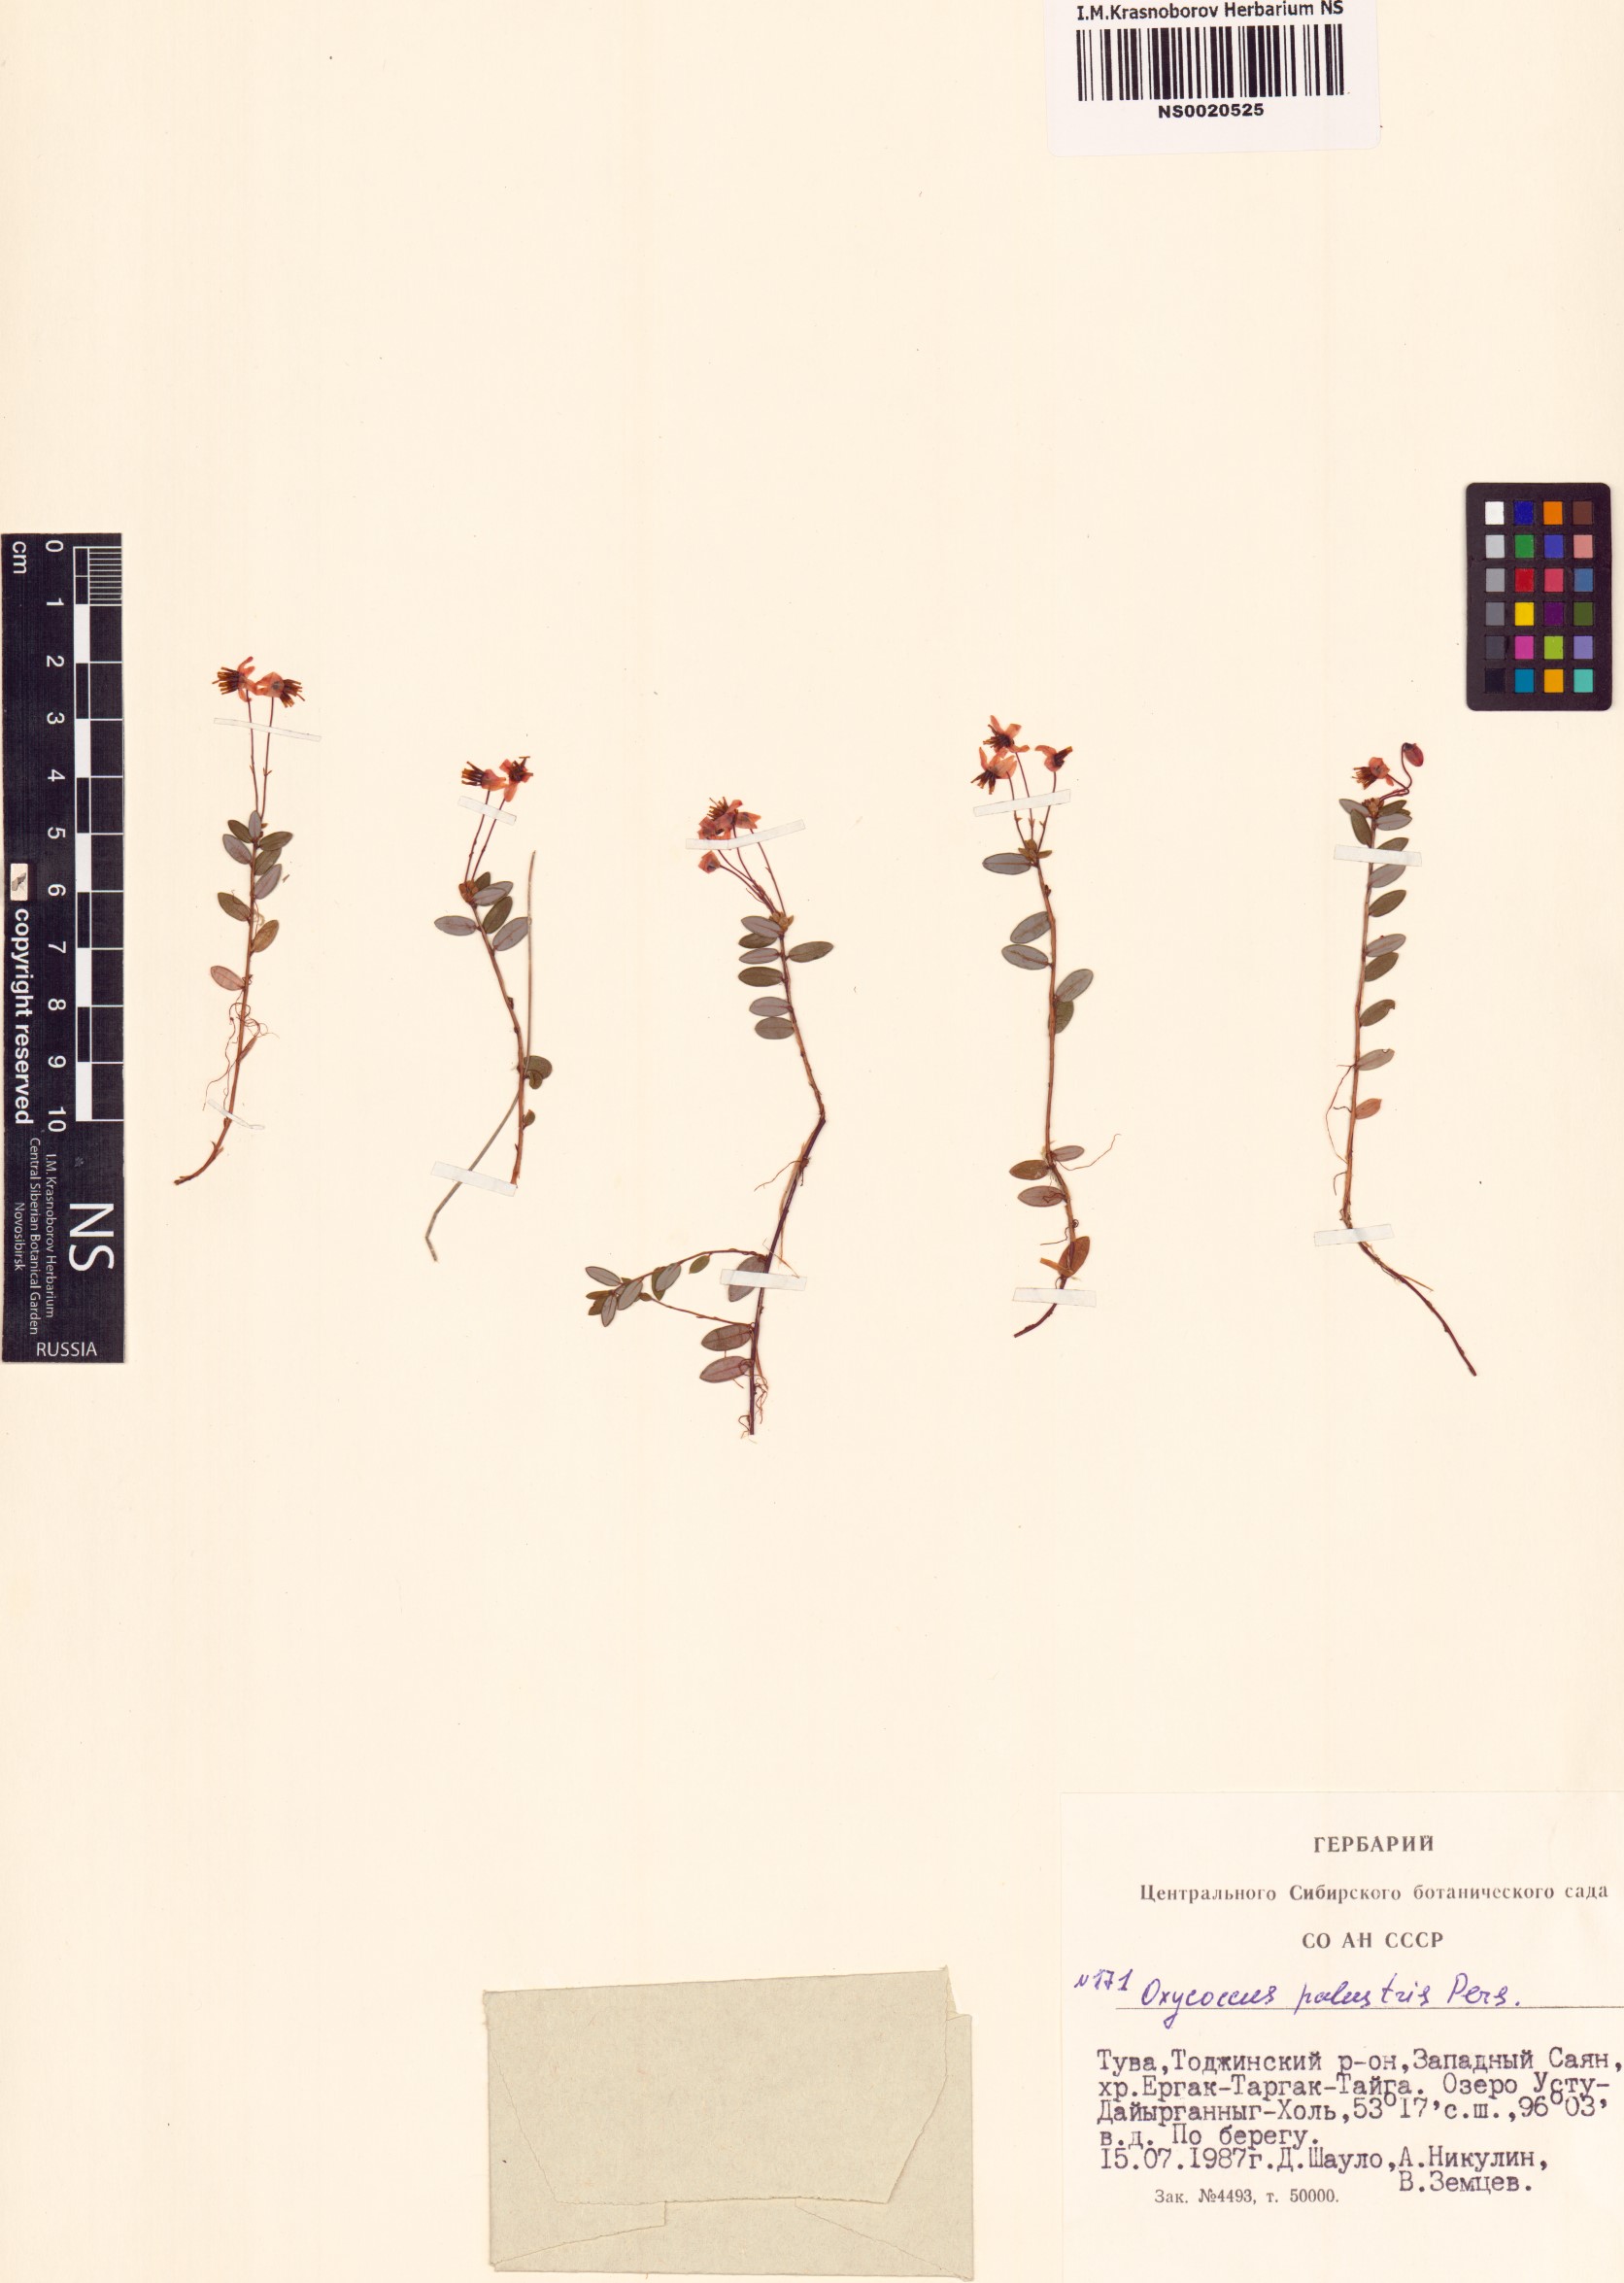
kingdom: Plantae
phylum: Tracheophyta
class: Magnoliopsida
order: Ericales
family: Ericaceae
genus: Vaccinium
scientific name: Vaccinium oxycoccos
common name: Cranberry
